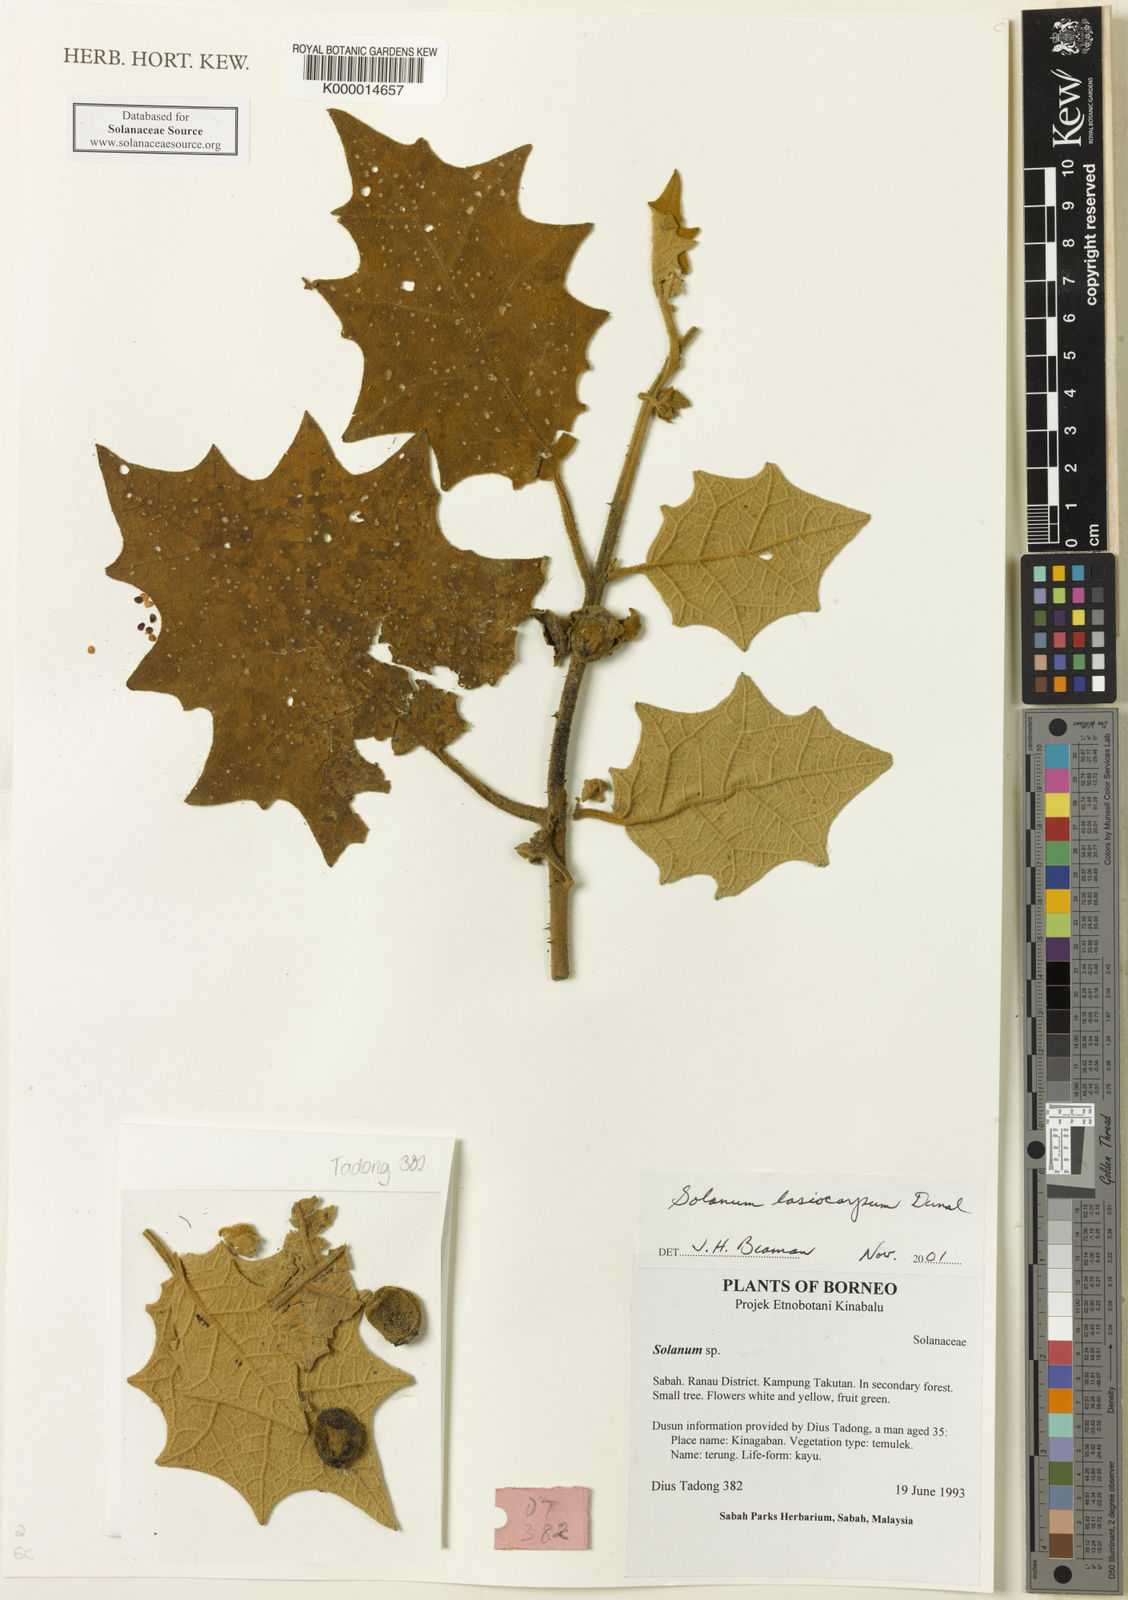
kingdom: Plantae
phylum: Tracheophyta
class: Magnoliopsida
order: Solanales
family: Solanaceae
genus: Solanum
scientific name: Solanum lasiocarpum
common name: Indian nightshade
